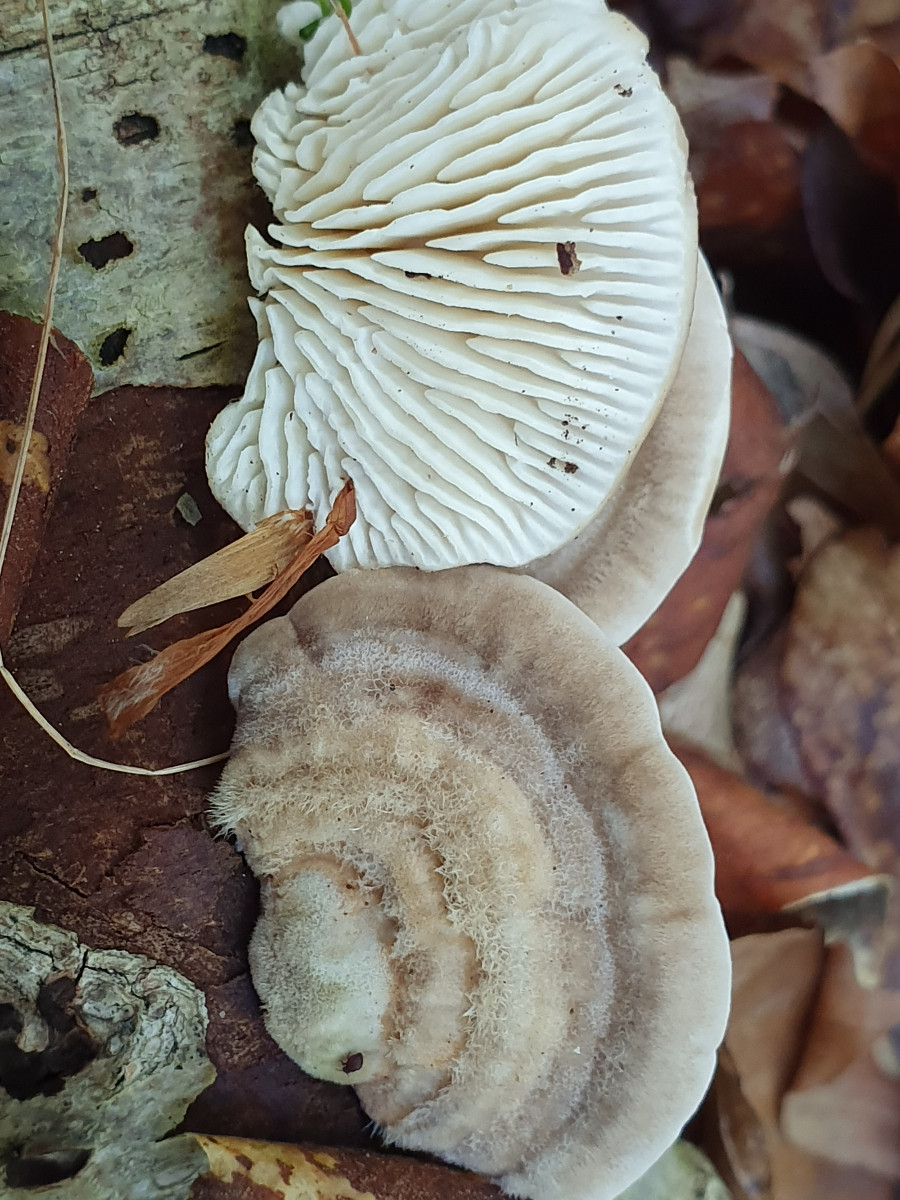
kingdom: Fungi
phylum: Basidiomycota
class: Agaricomycetes
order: Polyporales
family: Polyporaceae
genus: Lenzites
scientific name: Lenzites betulinus
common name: birke-læderporesvamp
